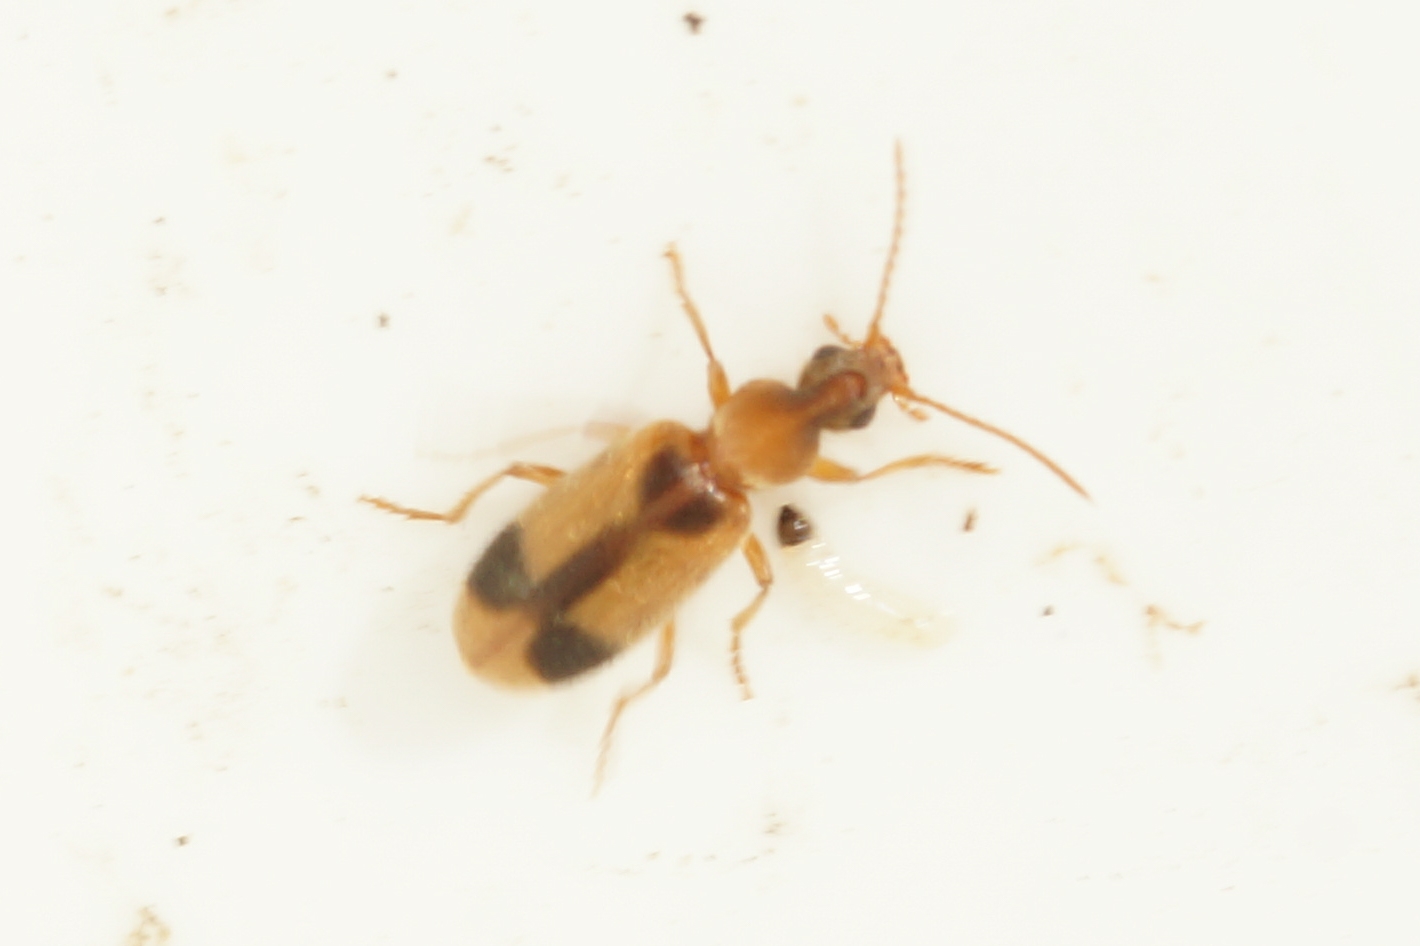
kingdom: Animalia
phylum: Arthropoda
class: Insecta
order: Coleoptera
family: Anthicidae
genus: Notoxus
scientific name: Notoxus monoceros
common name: Enhjørning
